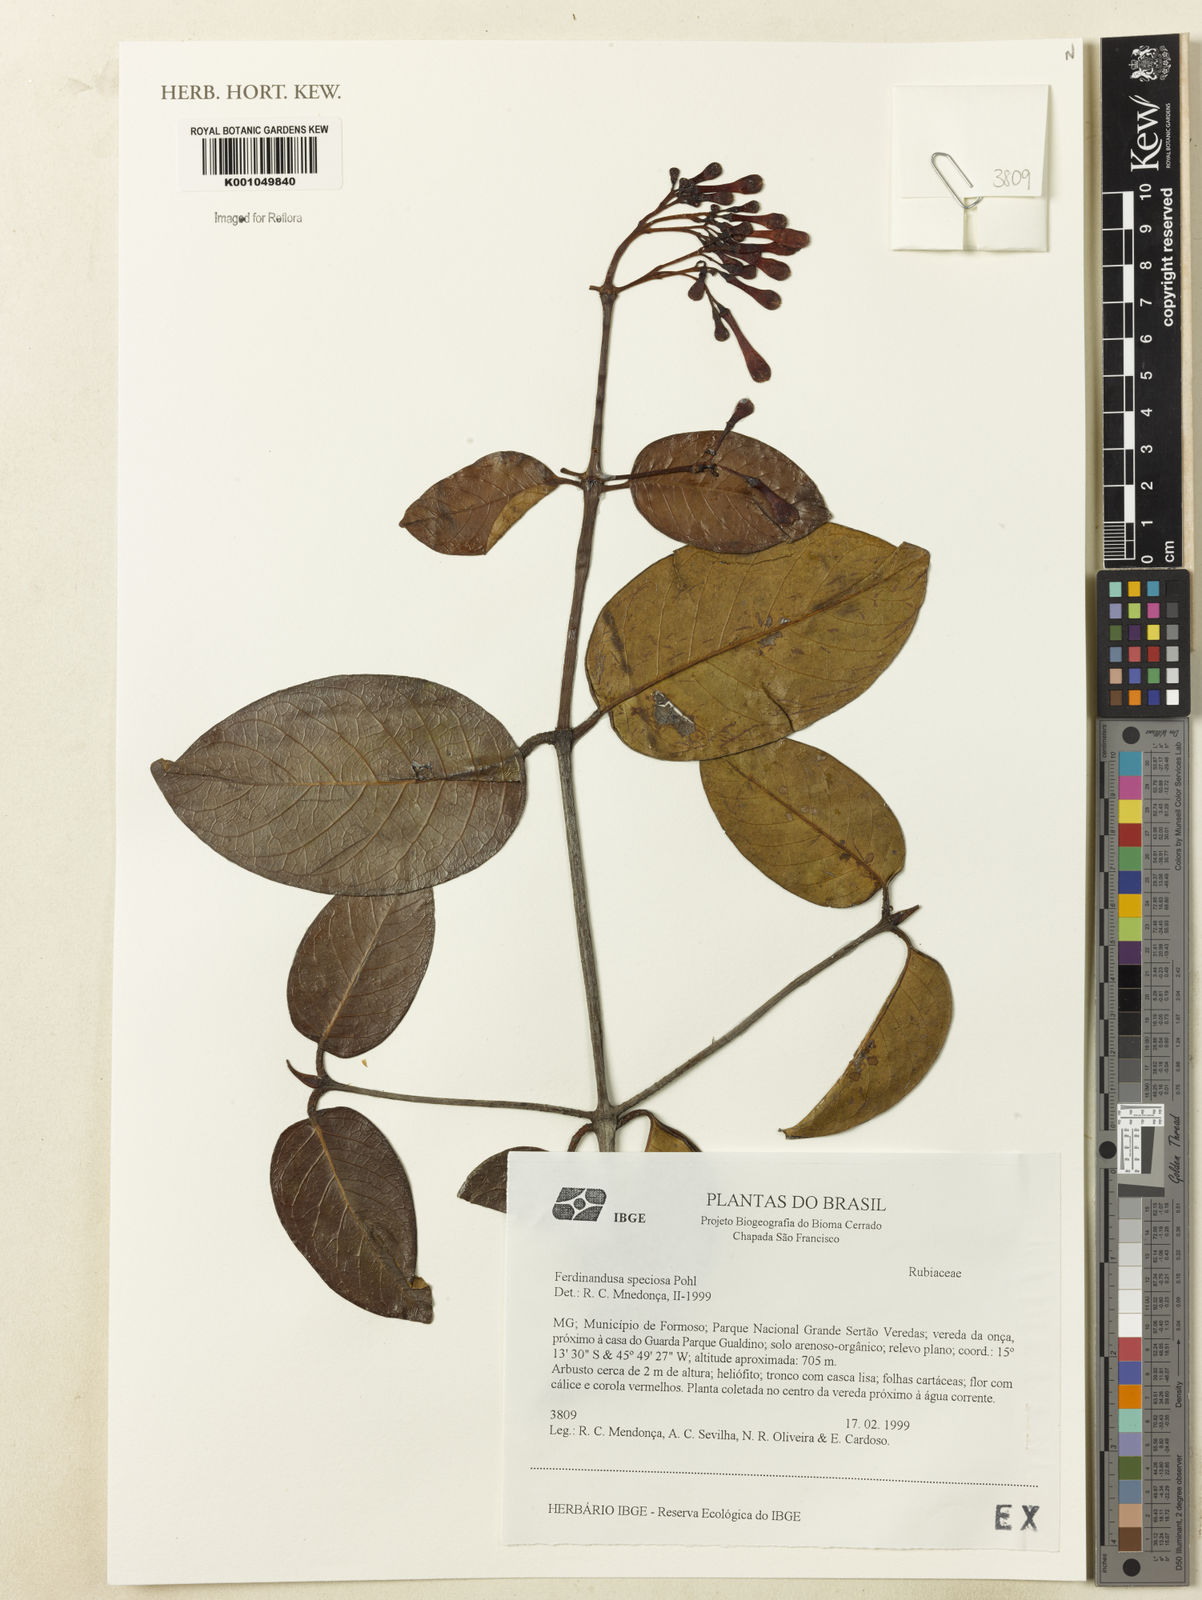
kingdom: Plantae
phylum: Tracheophyta
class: Magnoliopsida
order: Gentianales
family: Rubiaceae
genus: Ferdinandusa
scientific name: Ferdinandusa speciosa
